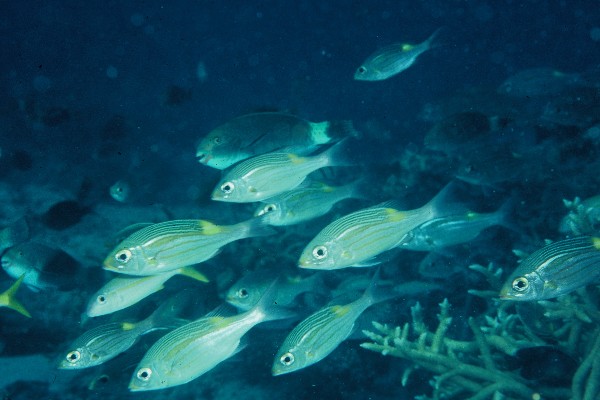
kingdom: Animalia
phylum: Chordata
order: Perciformes
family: Lethrinidae
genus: Gnathodentex
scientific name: Gnathodentex aureolineatus
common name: Gold-lined sea bream
